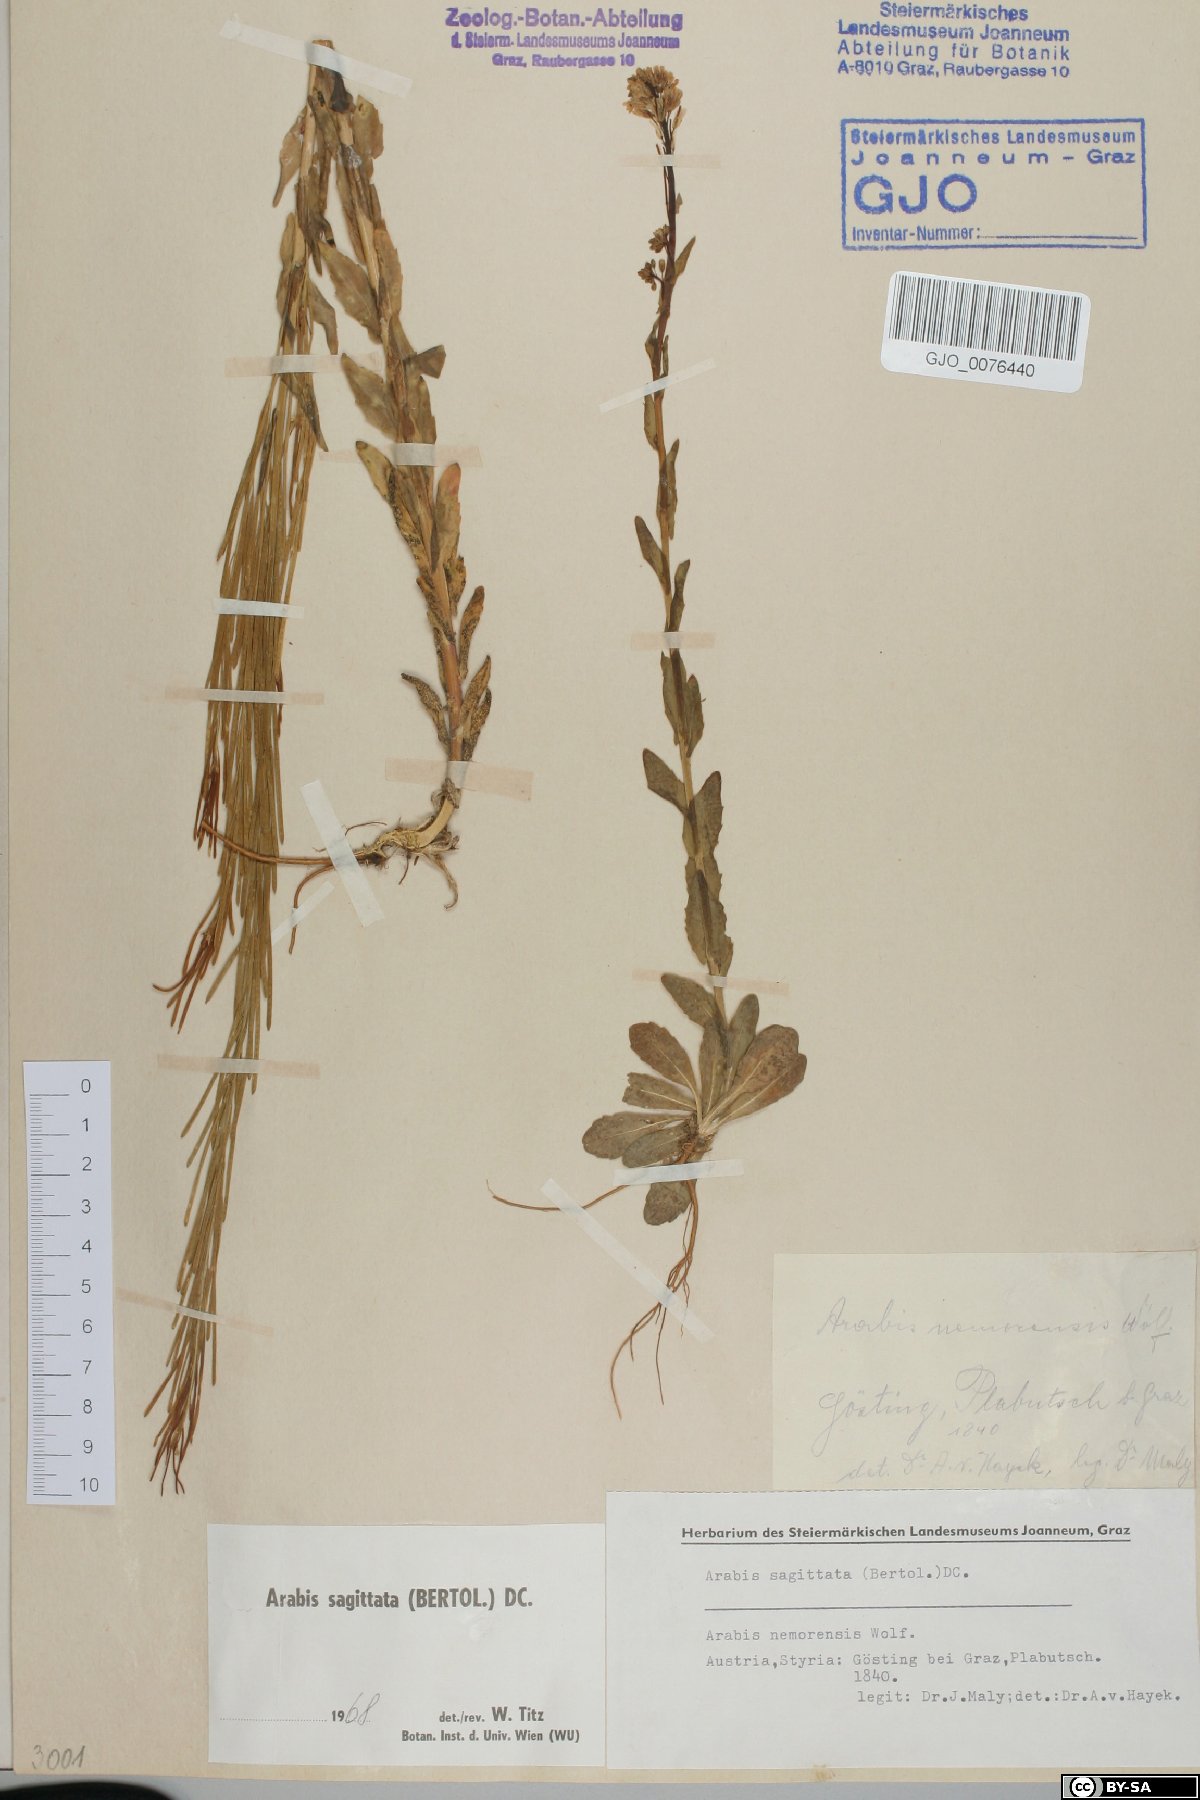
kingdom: Plantae
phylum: Tracheophyta
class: Magnoliopsida
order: Brassicales
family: Brassicaceae
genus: Arabis
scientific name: Arabis sagittata
